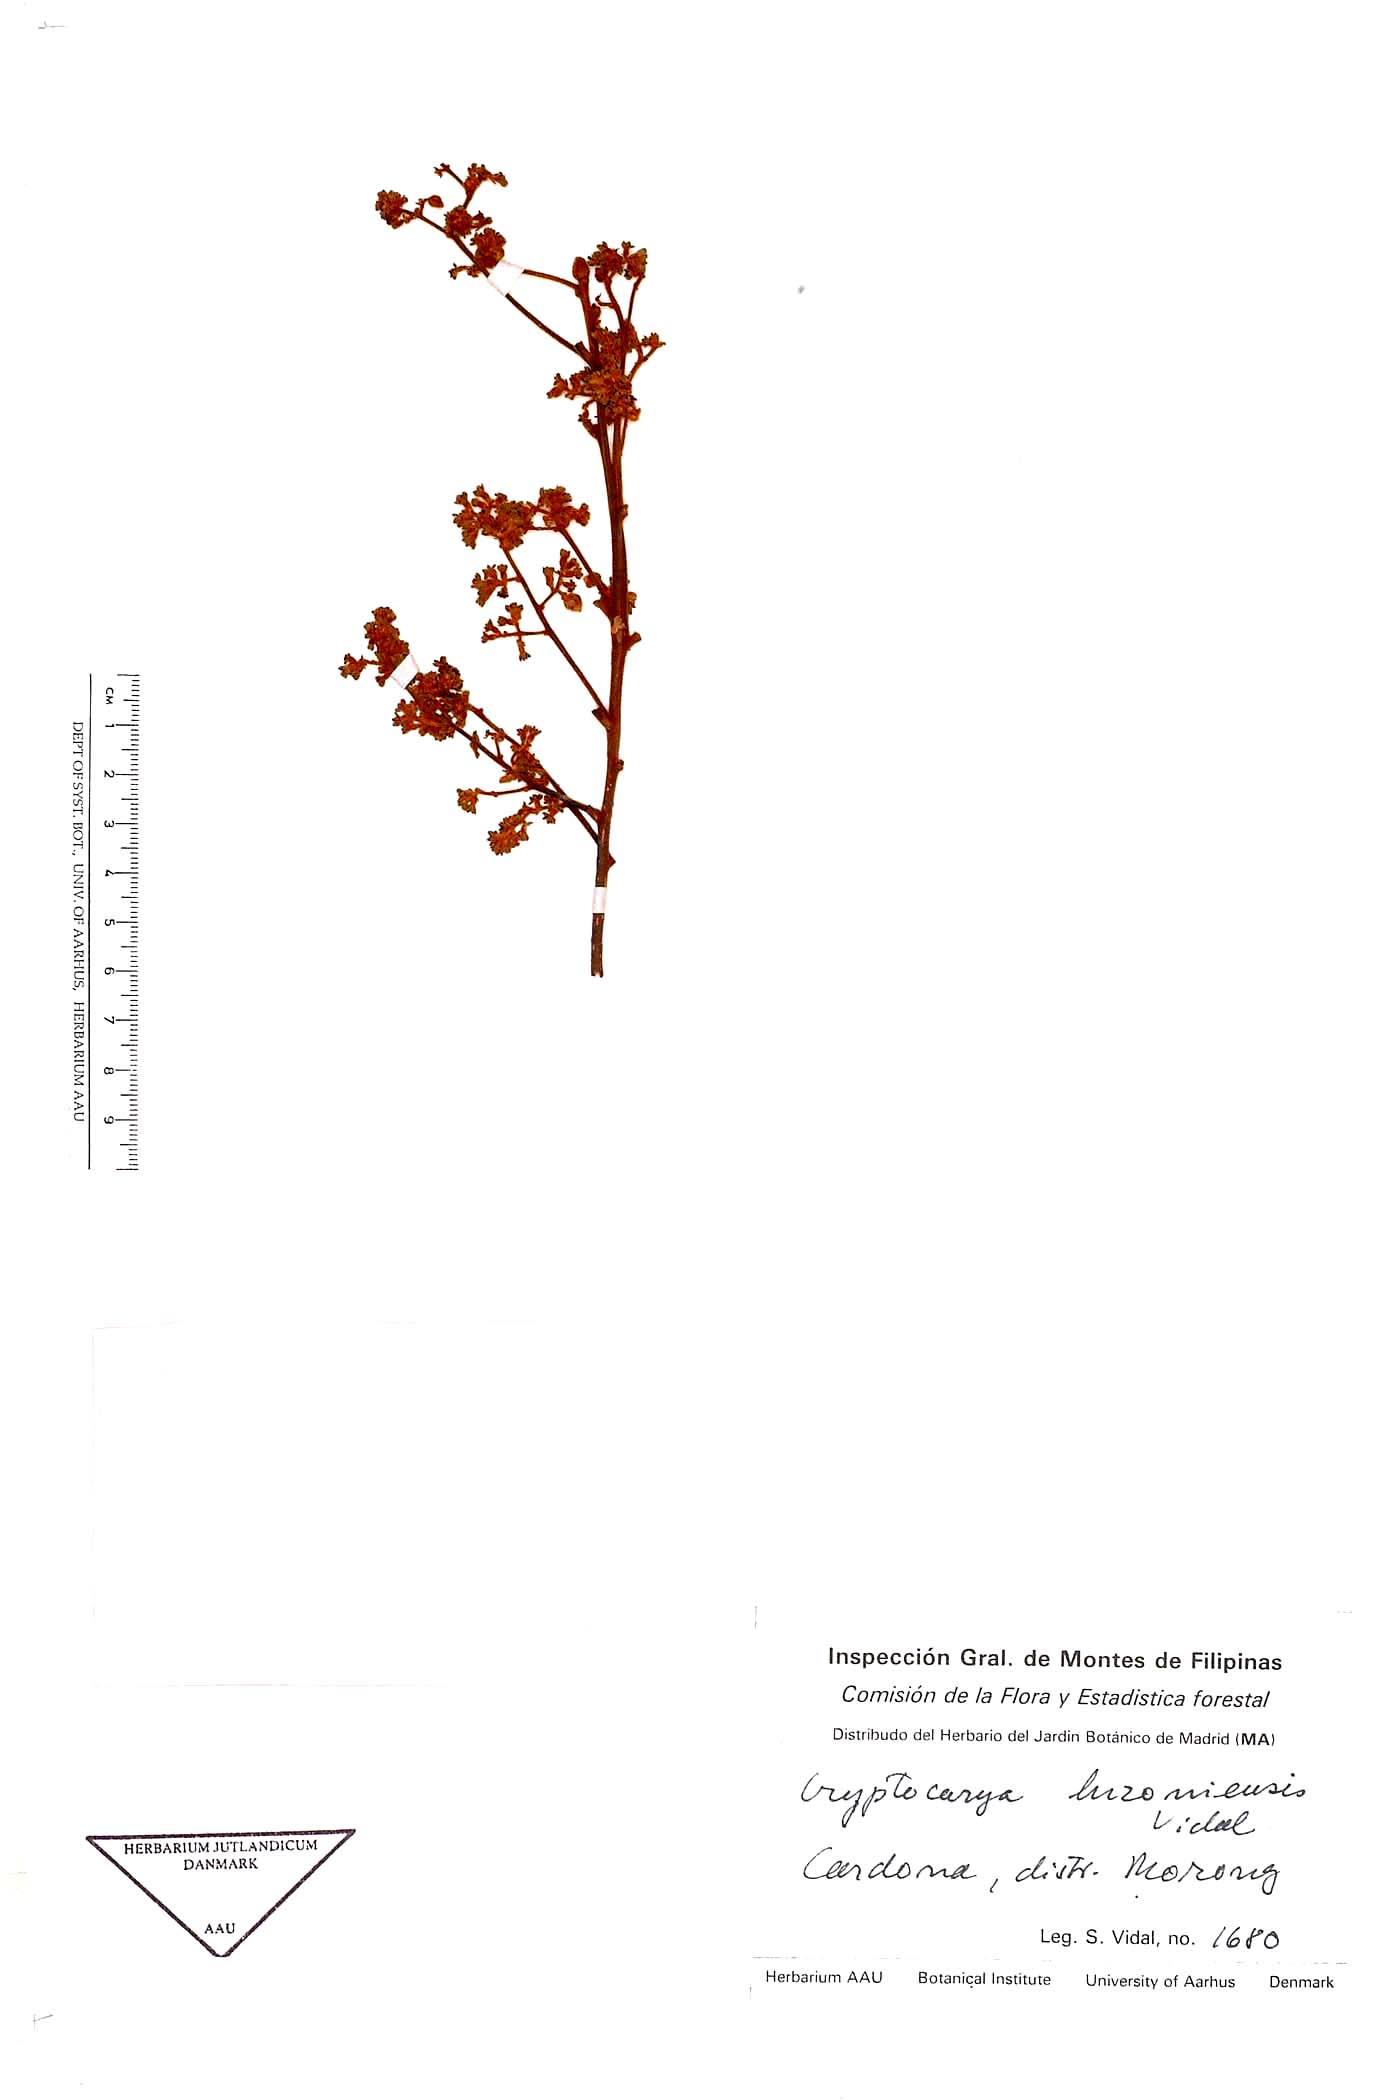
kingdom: Plantae
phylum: Tracheophyta
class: Magnoliopsida
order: Laurales
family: Lauraceae
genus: Cryptocarya
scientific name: Cryptocarya lauriflora
